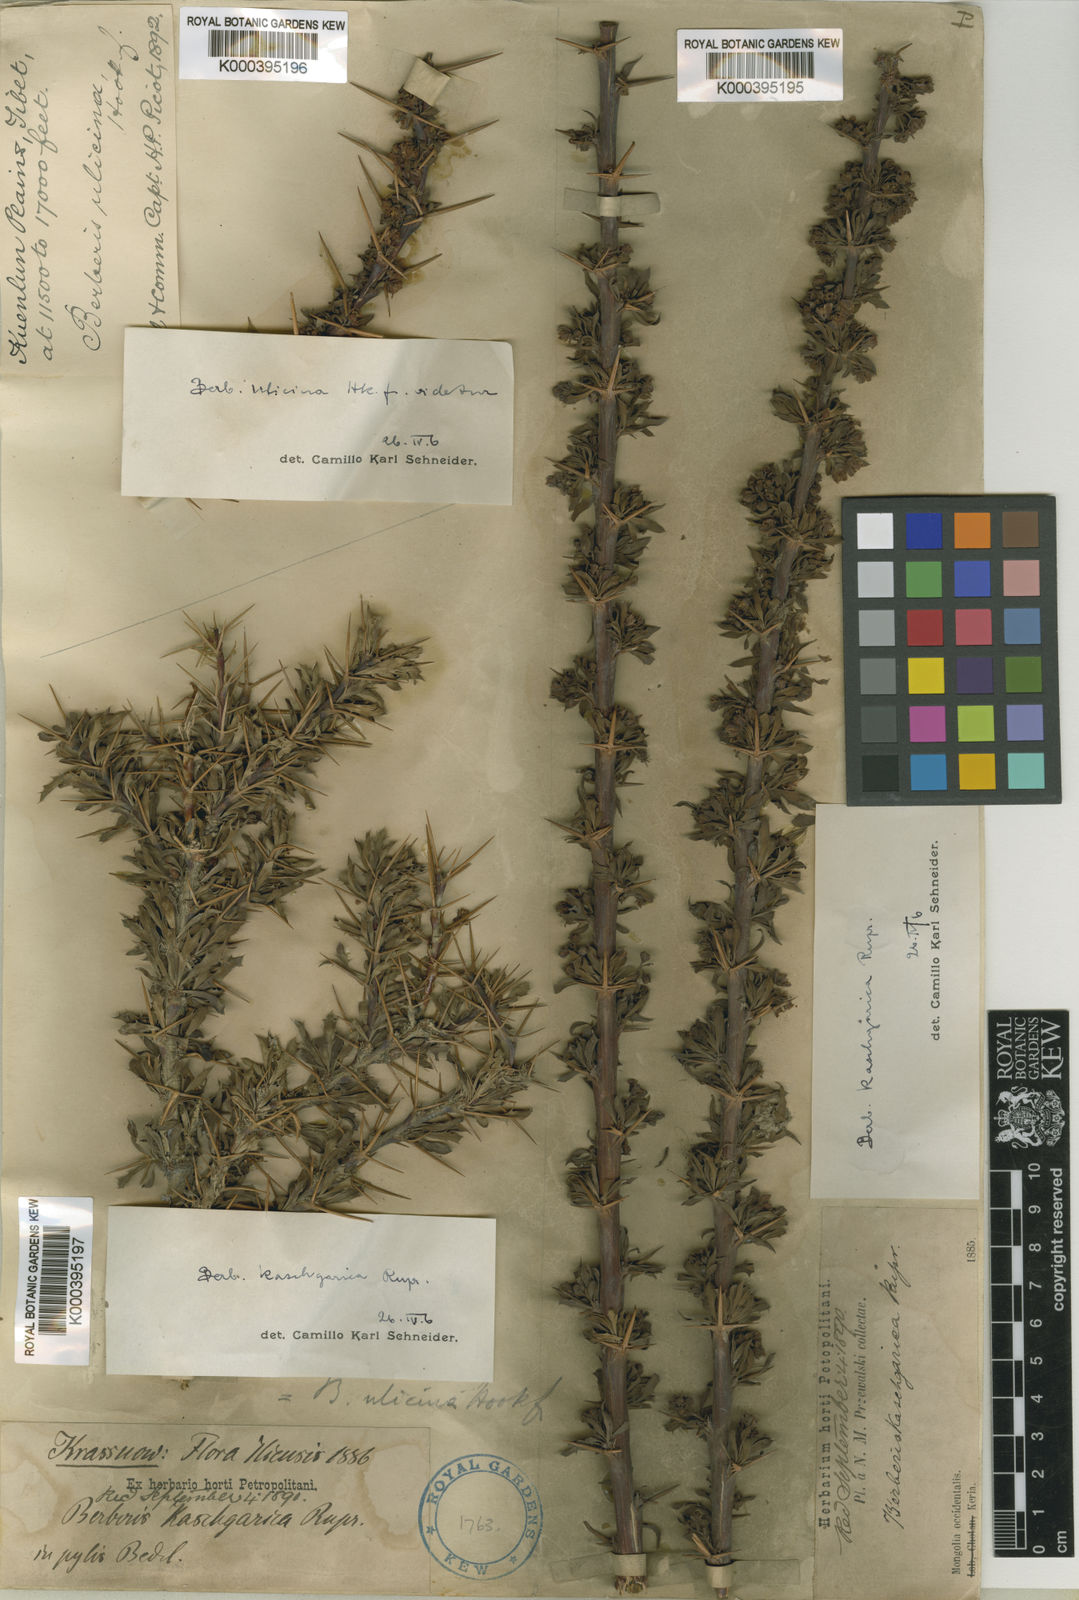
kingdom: Plantae
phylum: Tracheophyta
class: Magnoliopsida
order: Ranunculales
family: Berberidaceae
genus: Berberis
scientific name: Berberis
